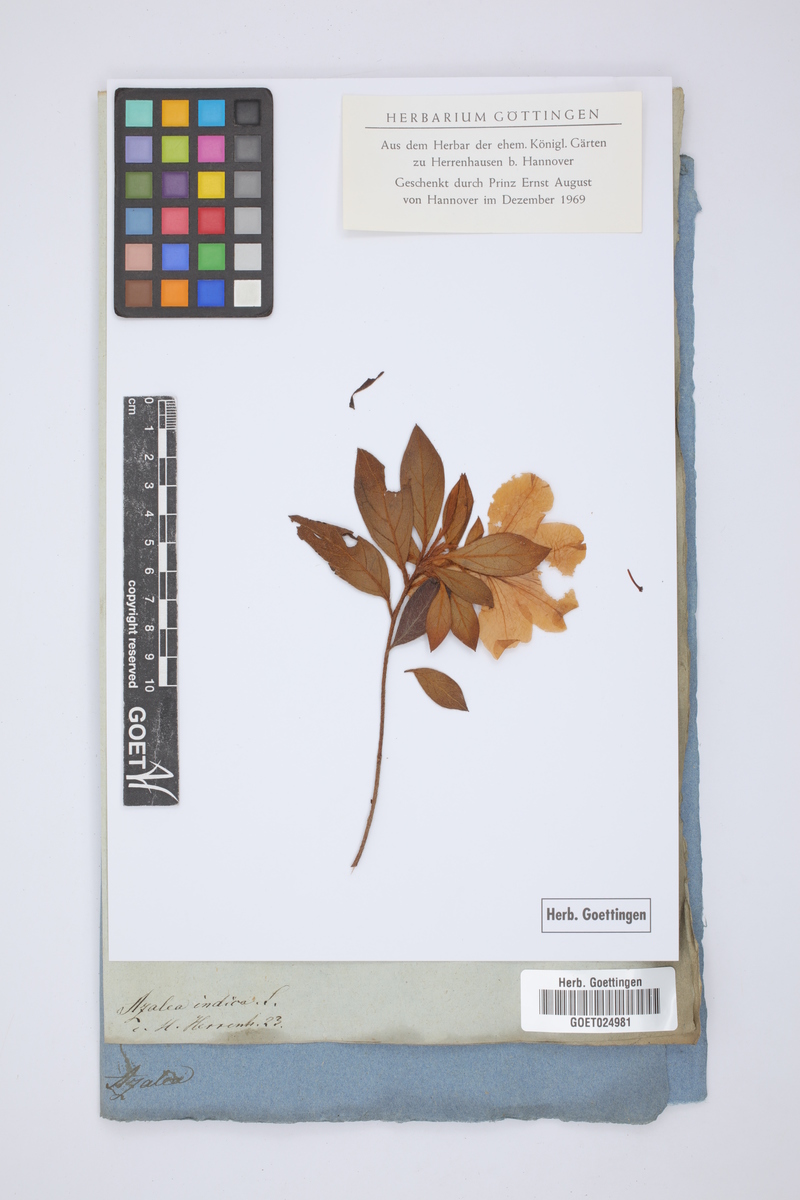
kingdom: Plantae
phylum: Tracheophyta
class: Magnoliopsida
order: Ericales
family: Ericaceae
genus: Rhododendron
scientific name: Rhododendron indicum
